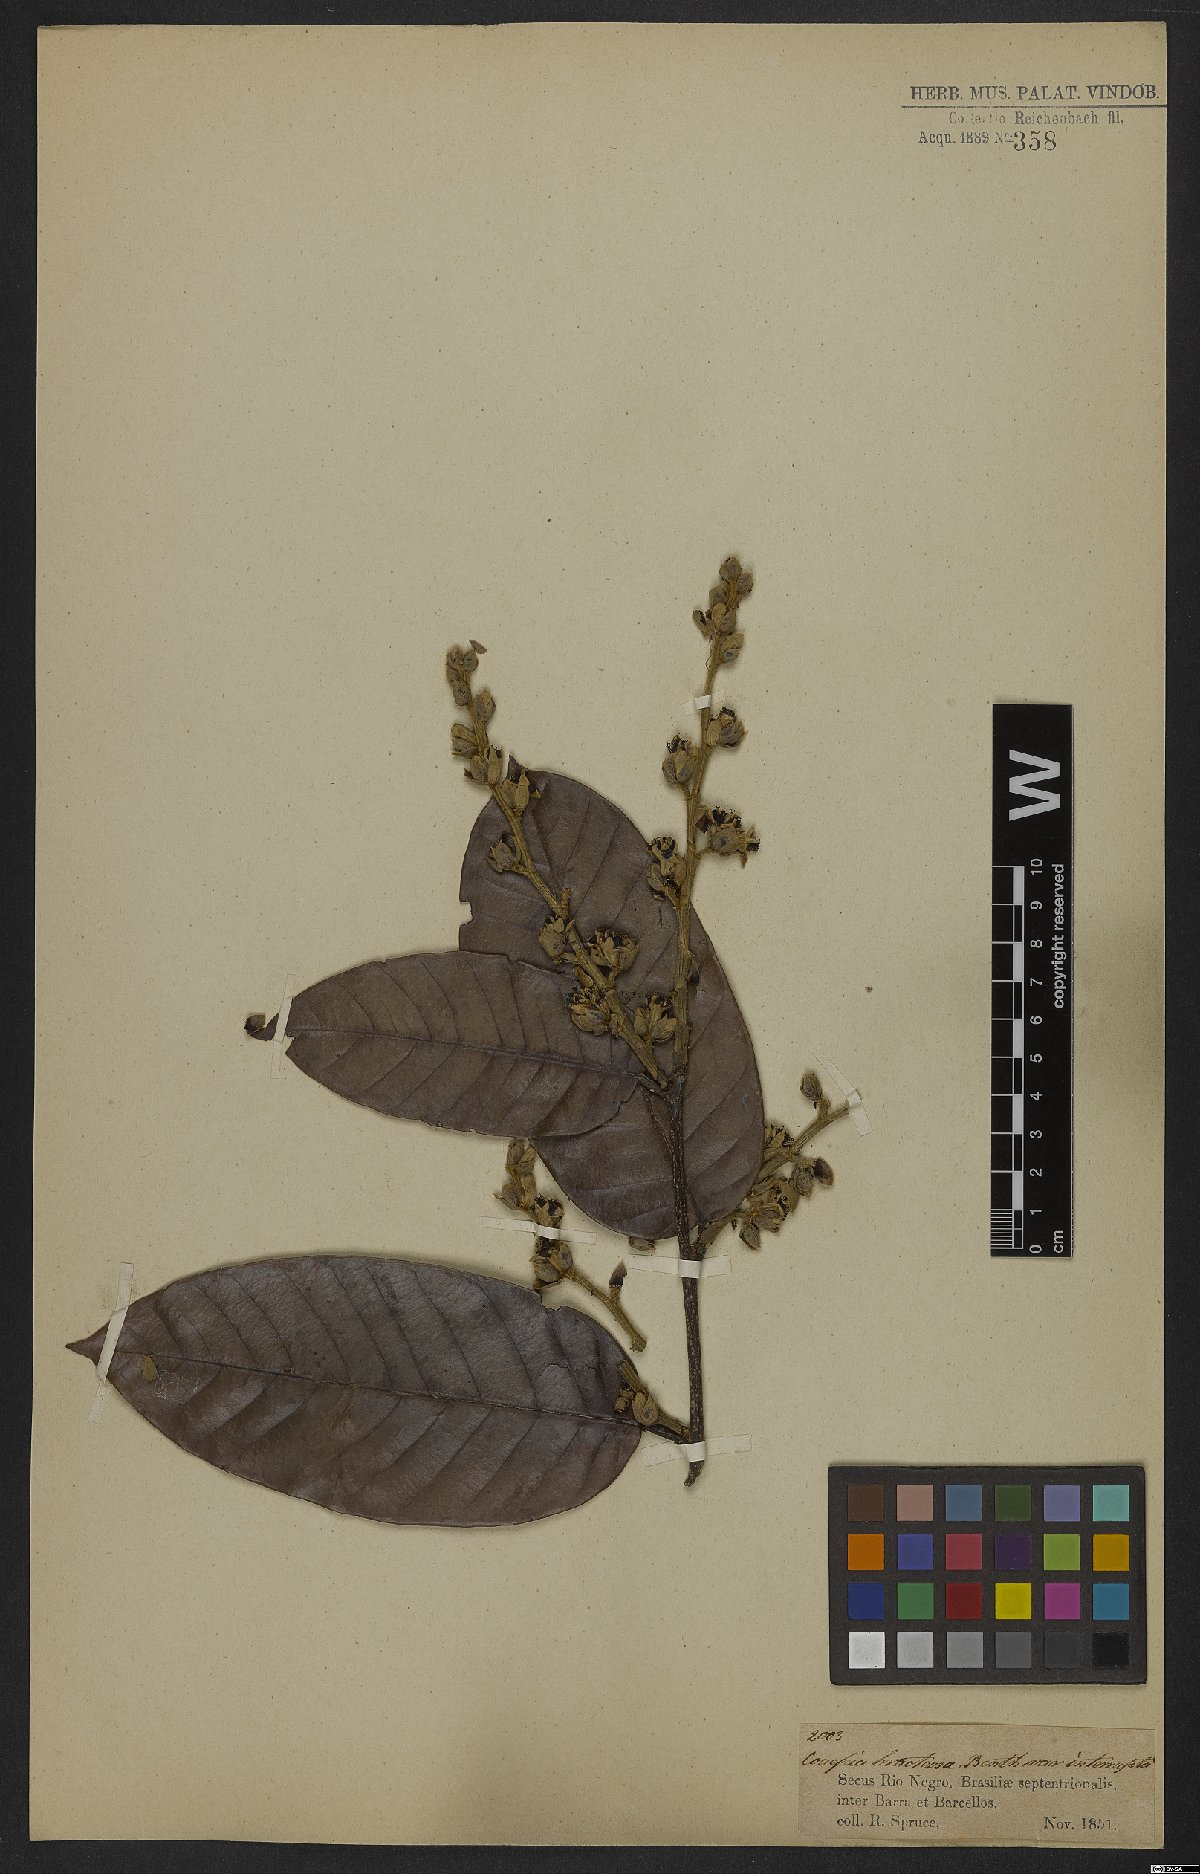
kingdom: Plantae
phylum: Tracheophyta
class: Magnoliopsida
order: Malpighiales
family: Chrysobalanaceae
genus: Couepia
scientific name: Couepia bracteosa
